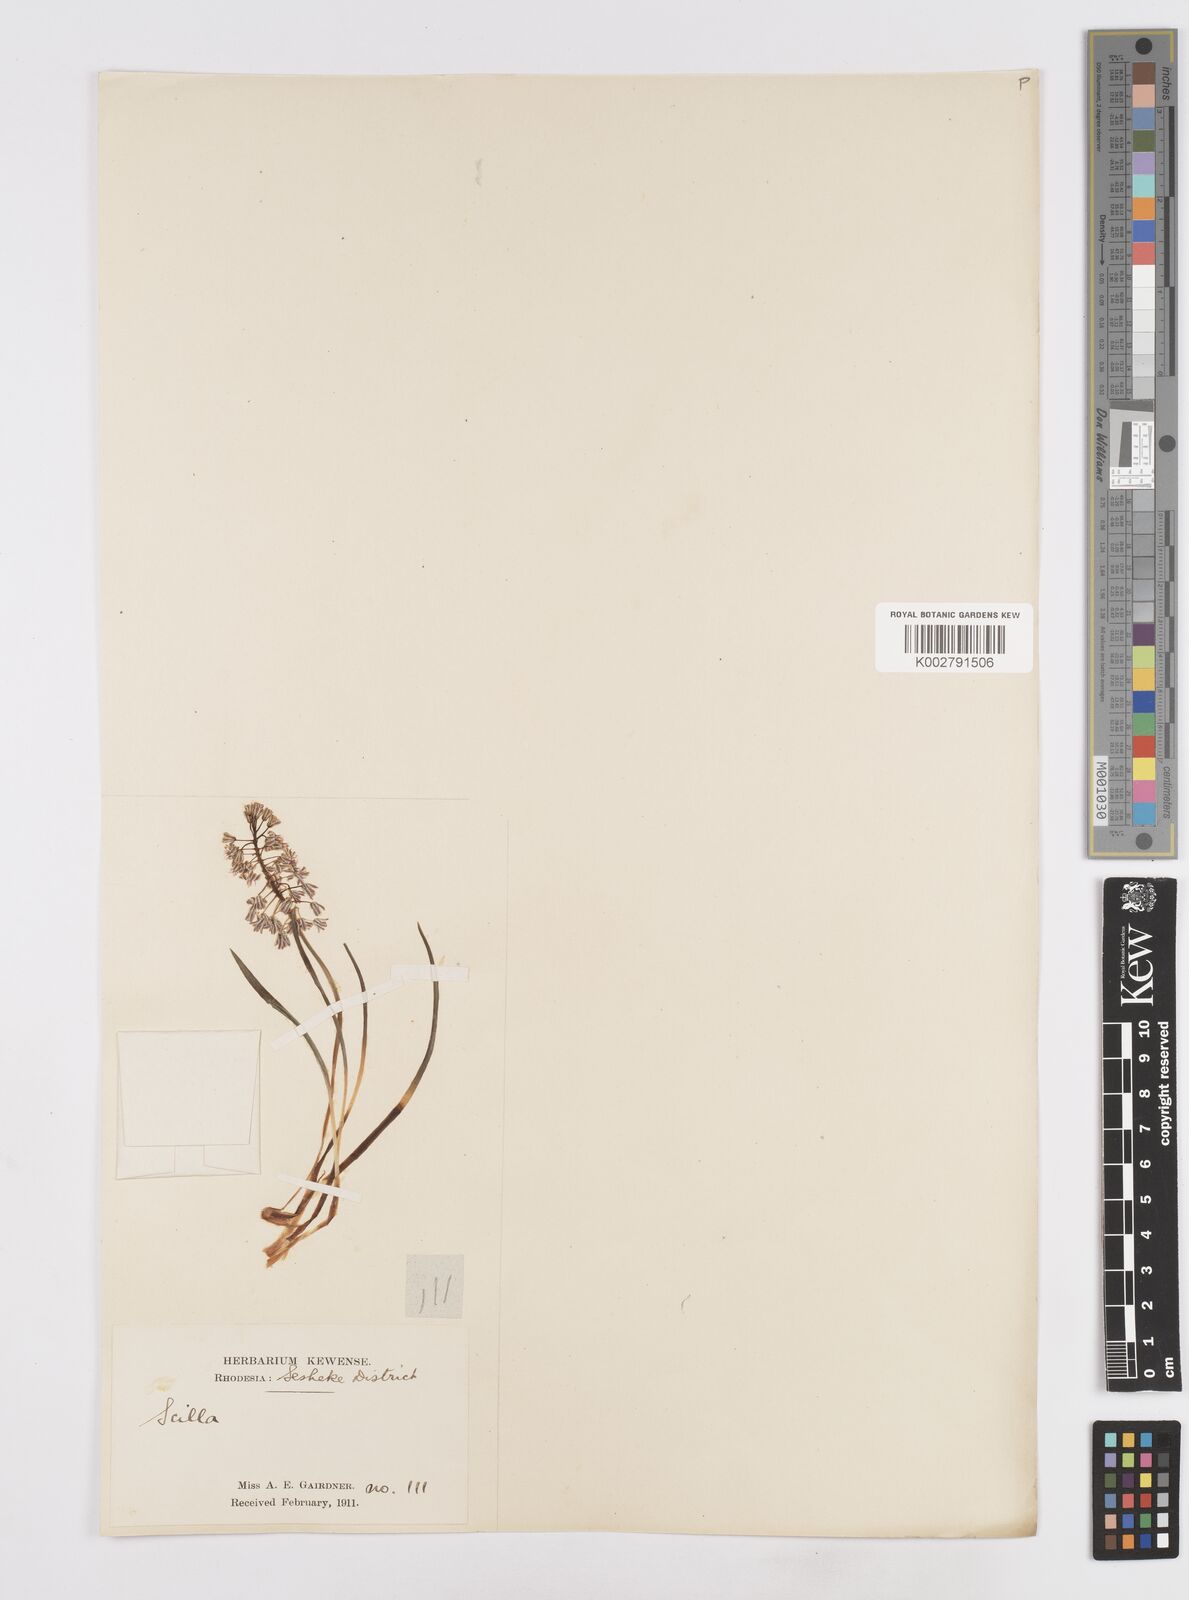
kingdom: Plantae
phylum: Tracheophyta
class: Liliopsida
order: Asparagales
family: Asparagaceae
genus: Scilla
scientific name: Scilla
